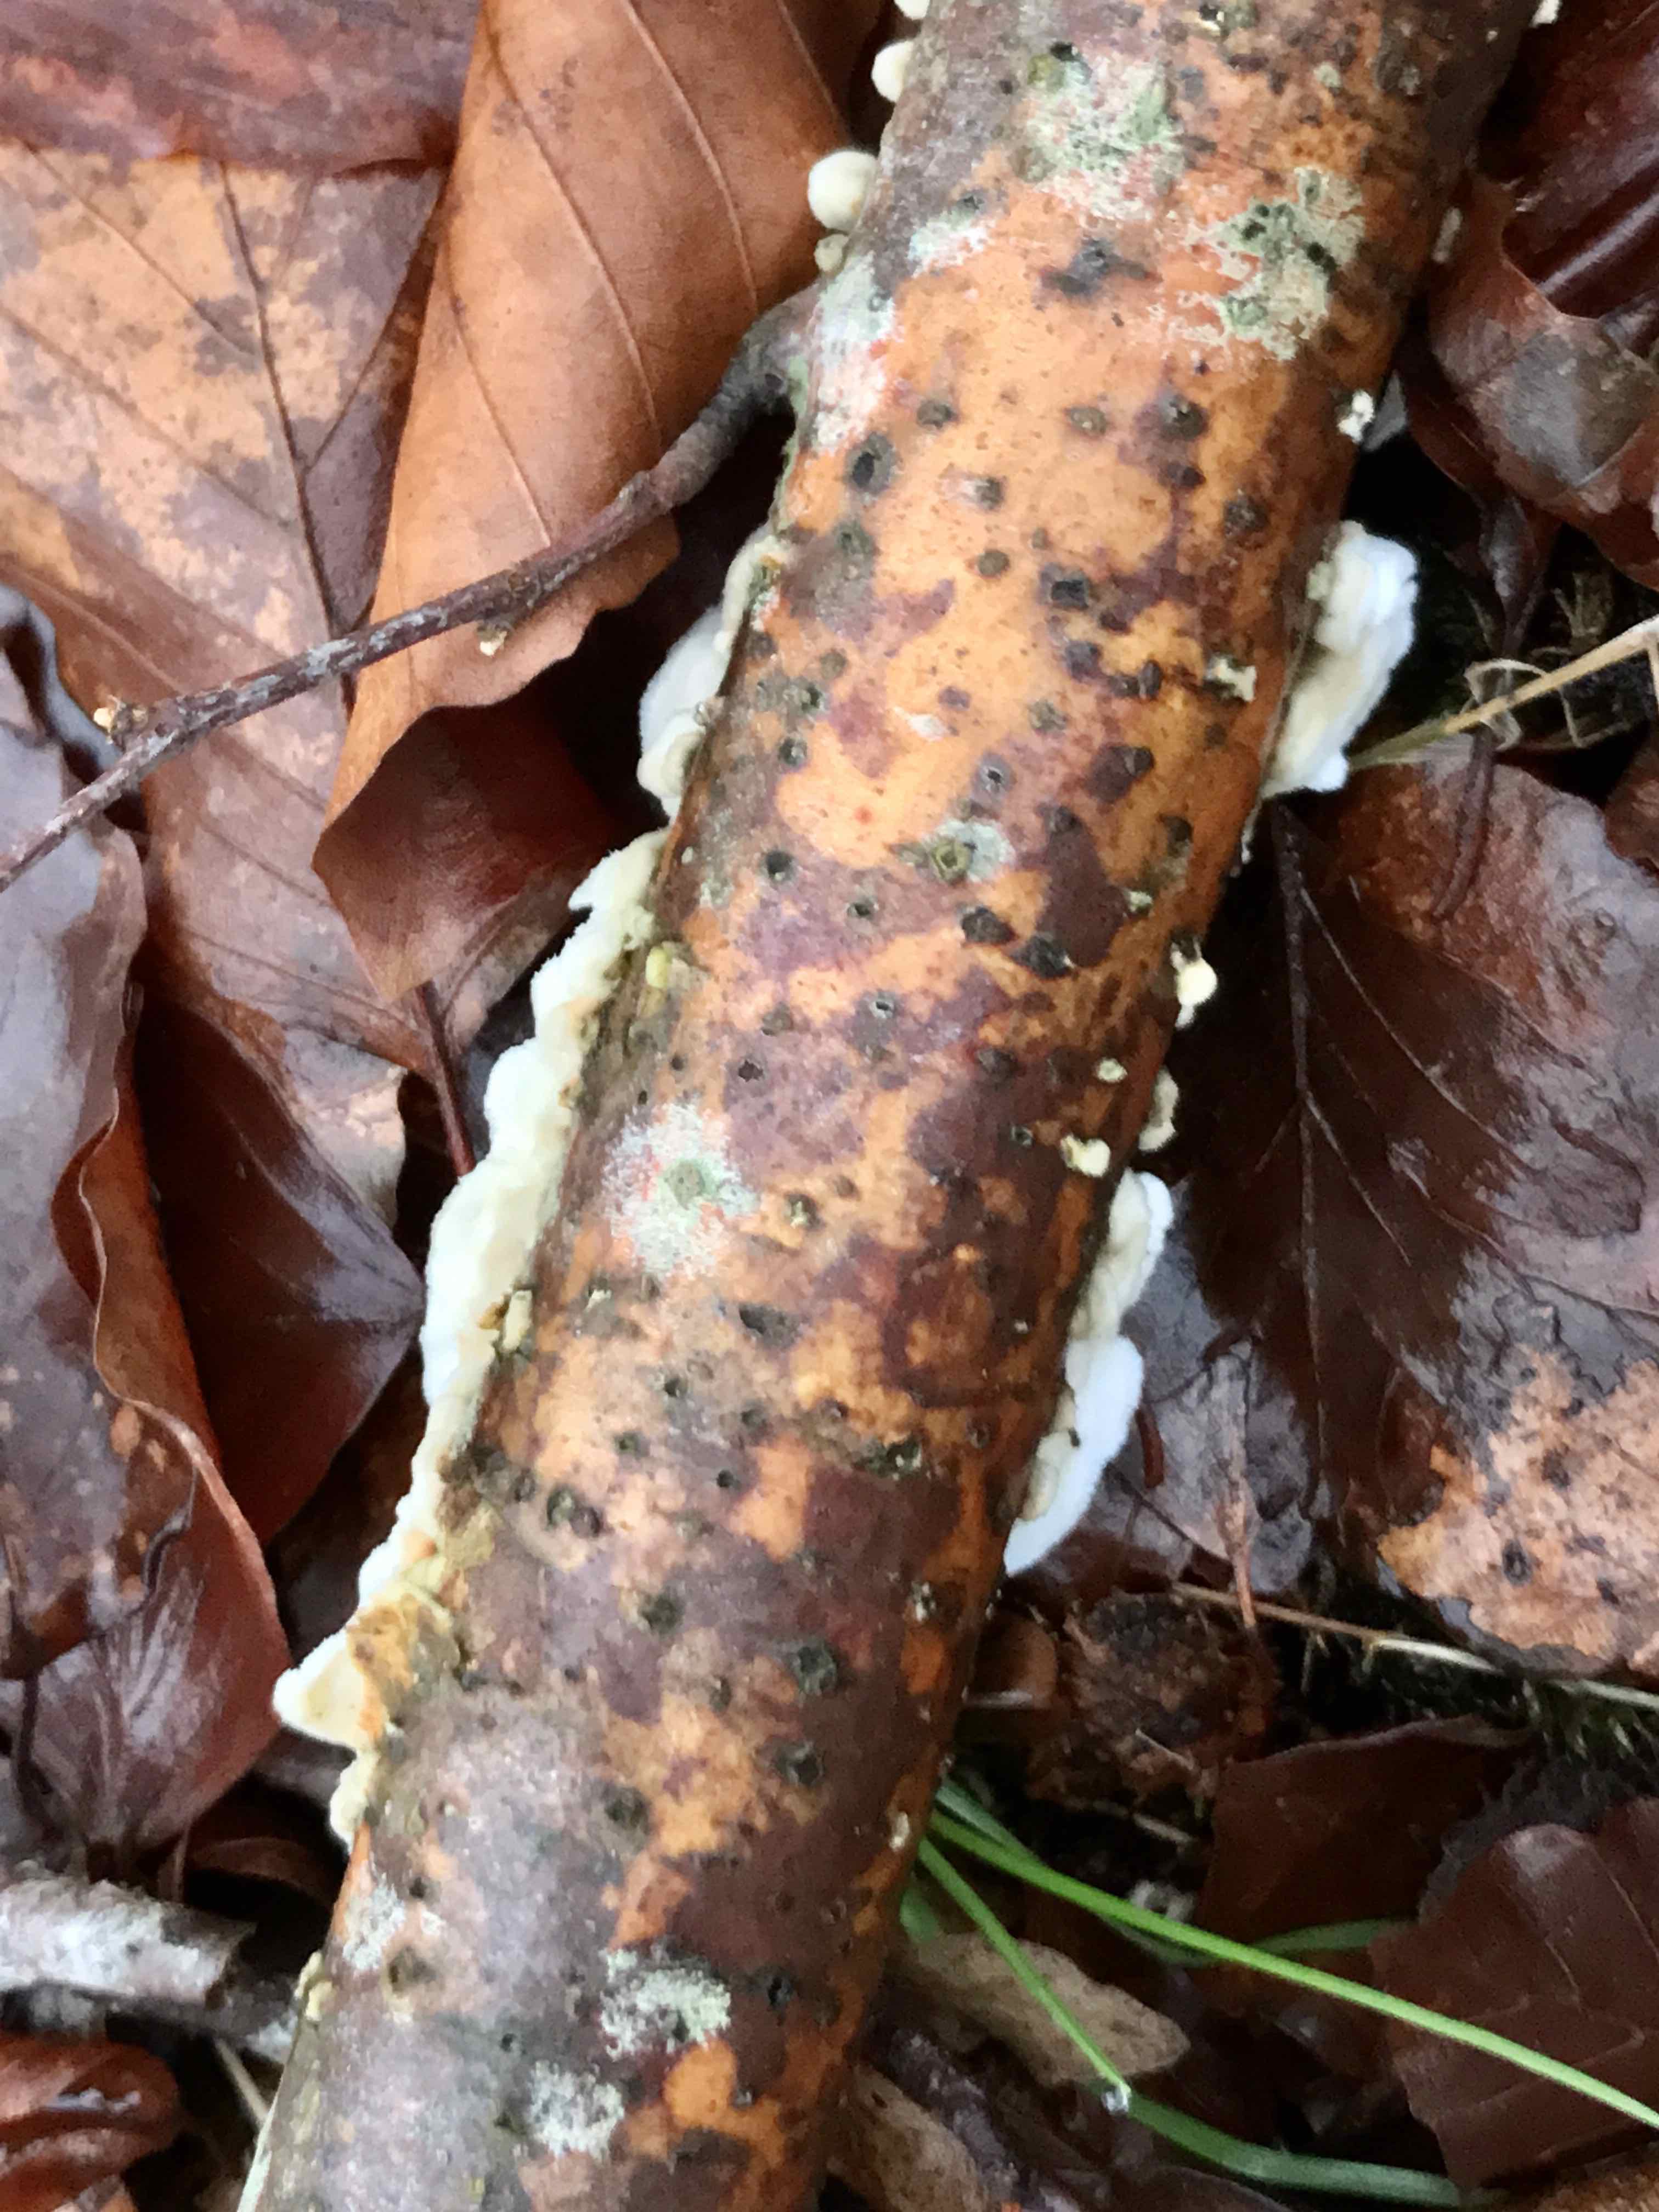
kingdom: Fungi
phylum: Basidiomycota
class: Agaricomycetes
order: Polyporales
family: Irpicaceae
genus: Byssomerulius
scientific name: Byssomerulius corium
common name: læder-åresvamp
